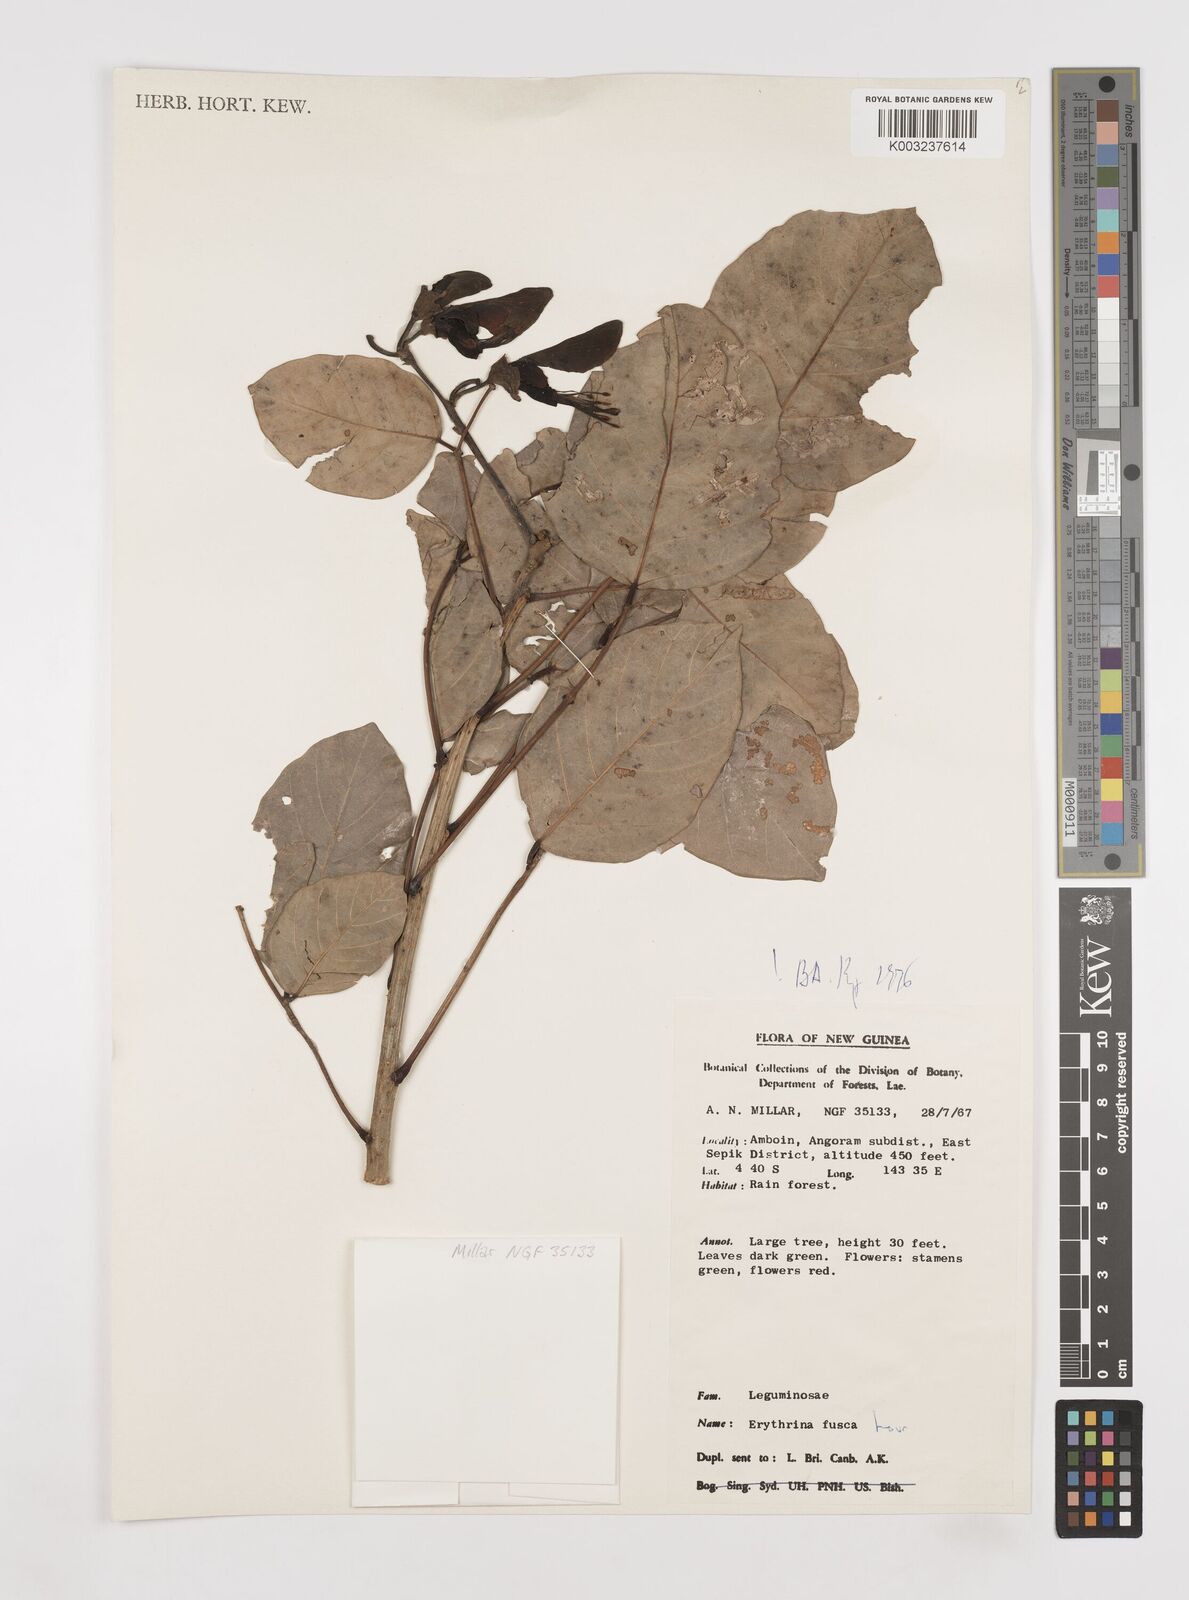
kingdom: Plantae
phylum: Tracheophyta
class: Magnoliopsida
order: Fabales
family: Fabaceae
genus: Erythrina
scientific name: Erythrina fusca
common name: Coral-bean
